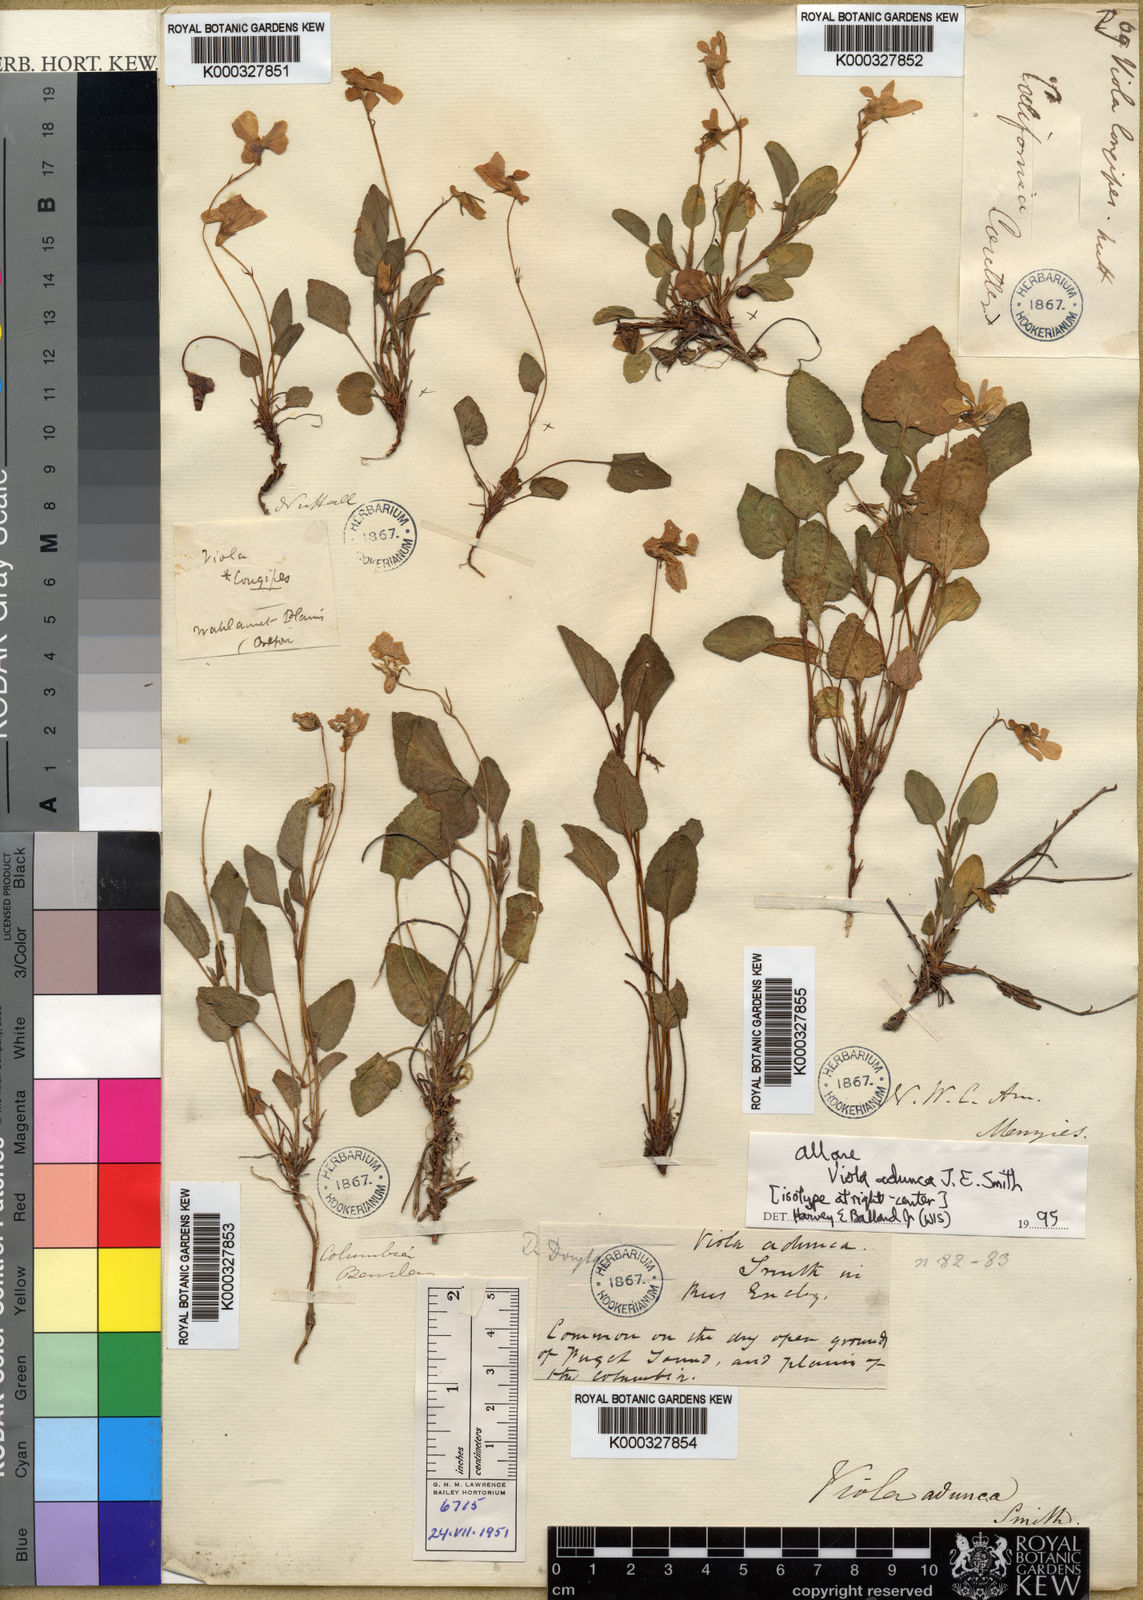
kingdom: Plantae
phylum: Tracheophyta
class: Magnoliopsida
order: Malpighiales
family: Violaceae
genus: Viola
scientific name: Viola adunca
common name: Sand violet
